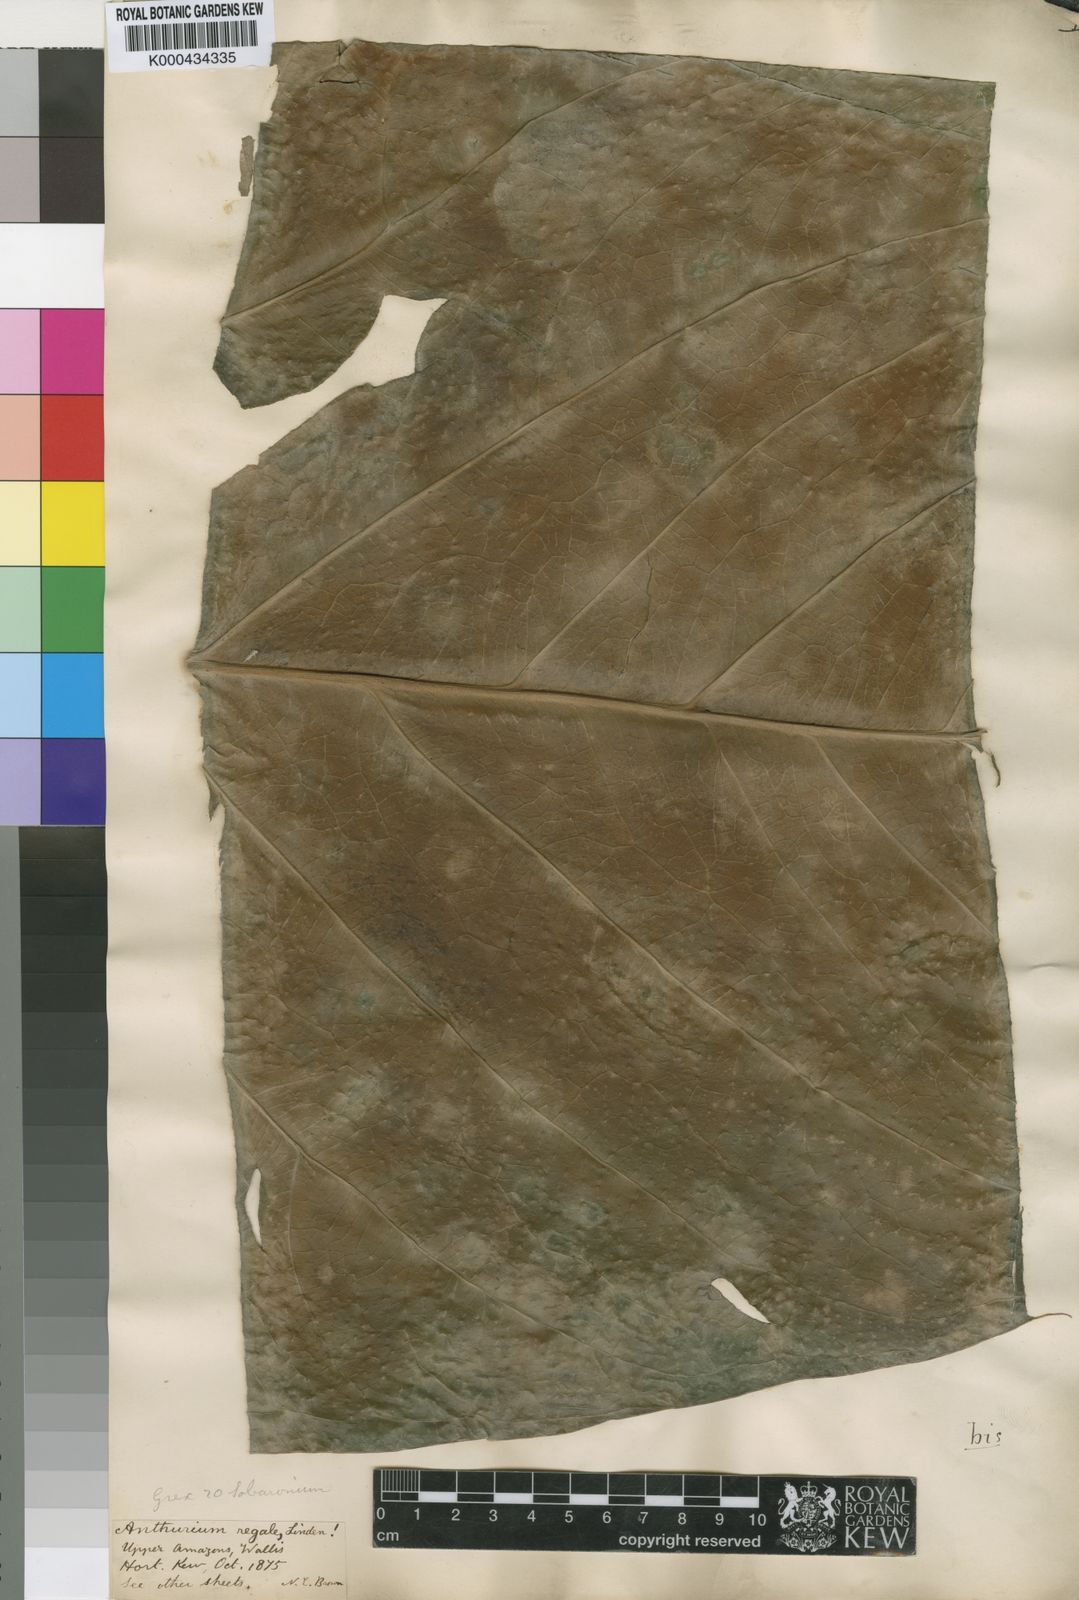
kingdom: Plantae
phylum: Tracheophyta
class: Liliopsida
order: Alismatales
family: Araceae
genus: Anthurium
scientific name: Anthurium regale
